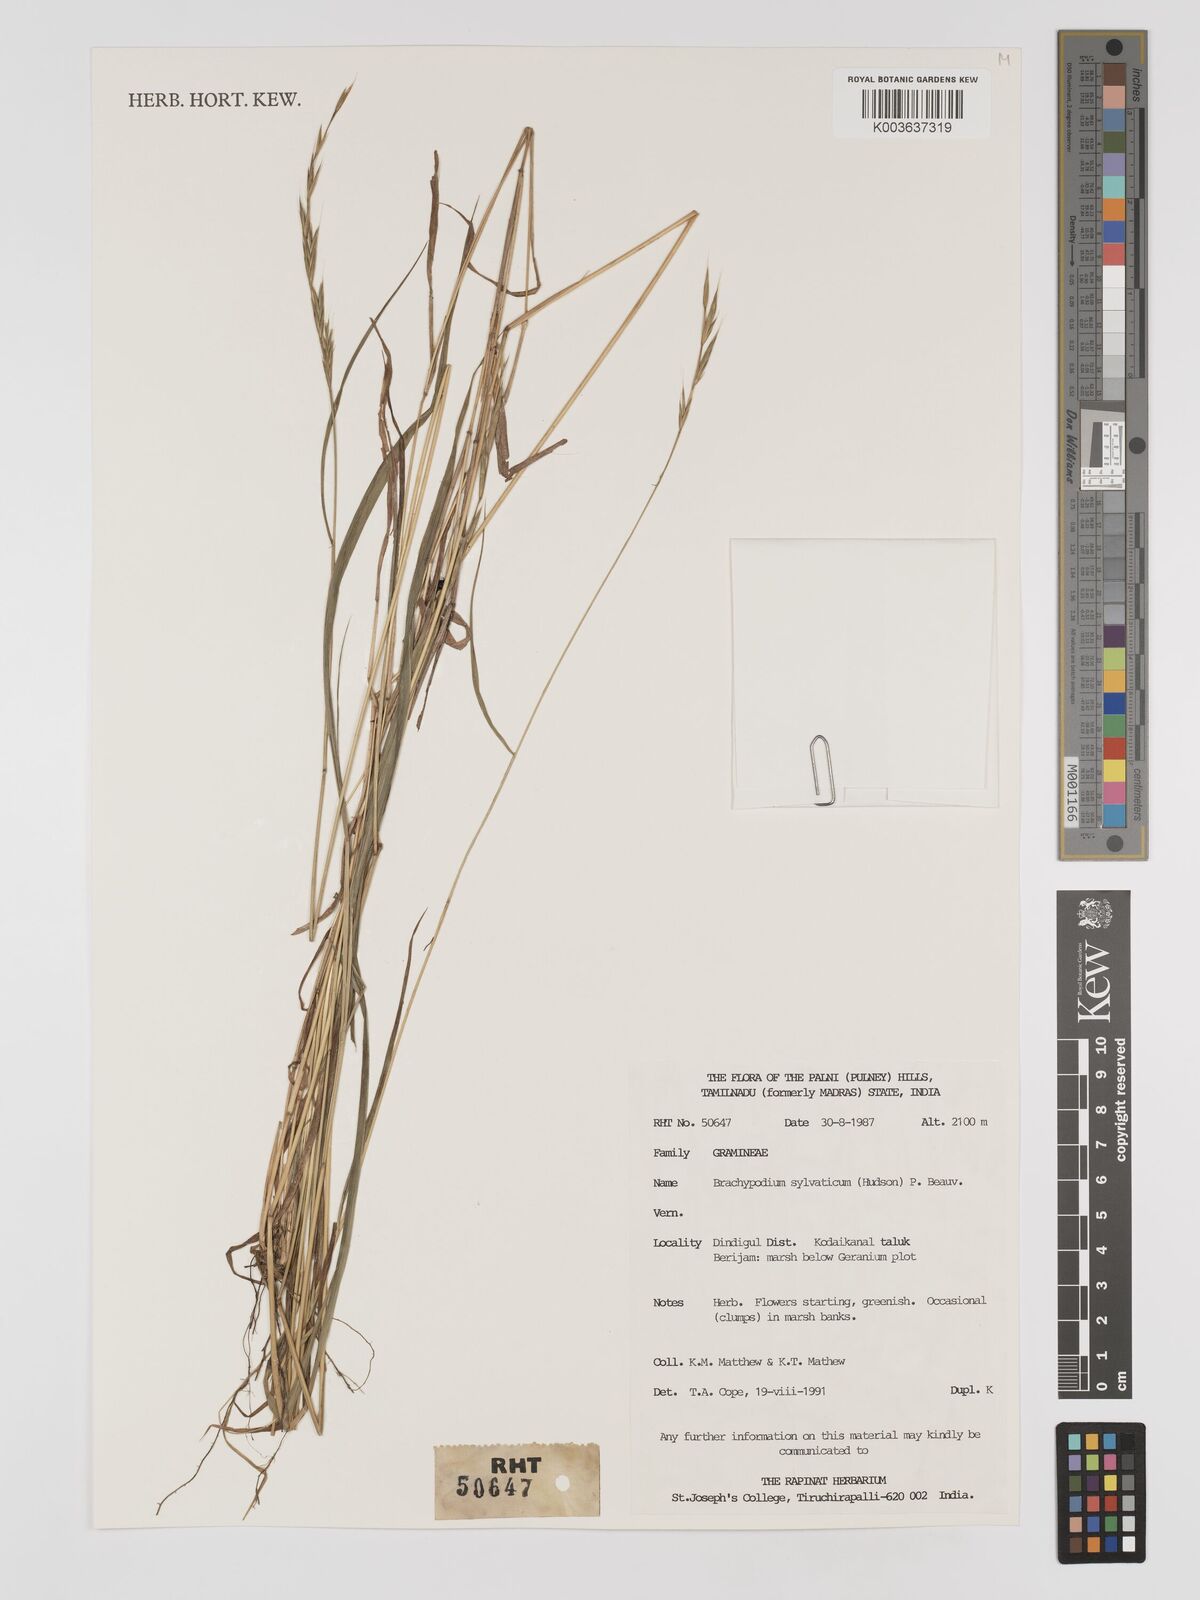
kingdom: Plantae
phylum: Tracheophyta
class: Liliopsida
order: Poales
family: Poaceae
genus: Brachypodium
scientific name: Brachypodium sylvaticum
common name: False-brome
